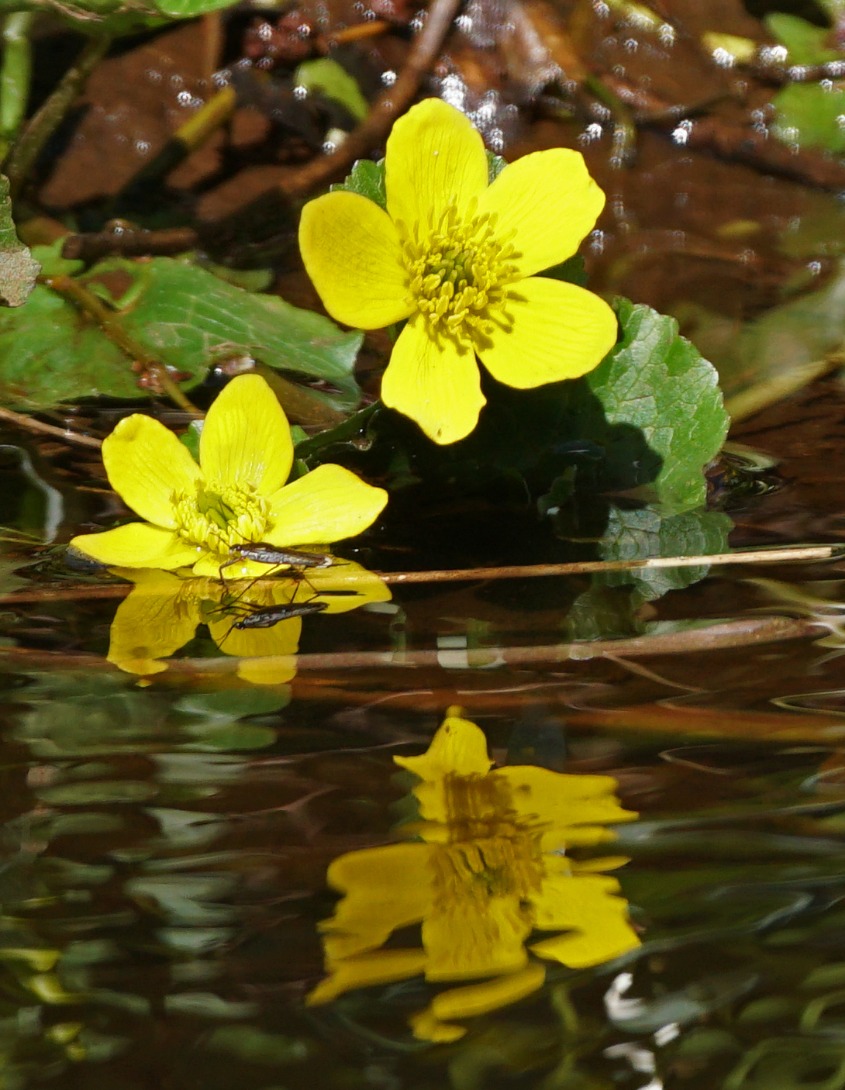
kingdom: Plantae
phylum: Tracheophyta
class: Magnoliopsida
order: Ranunculales
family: Ranunculaceae
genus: Caltha
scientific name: Caltha palustris
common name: Eng-kabbeleje
